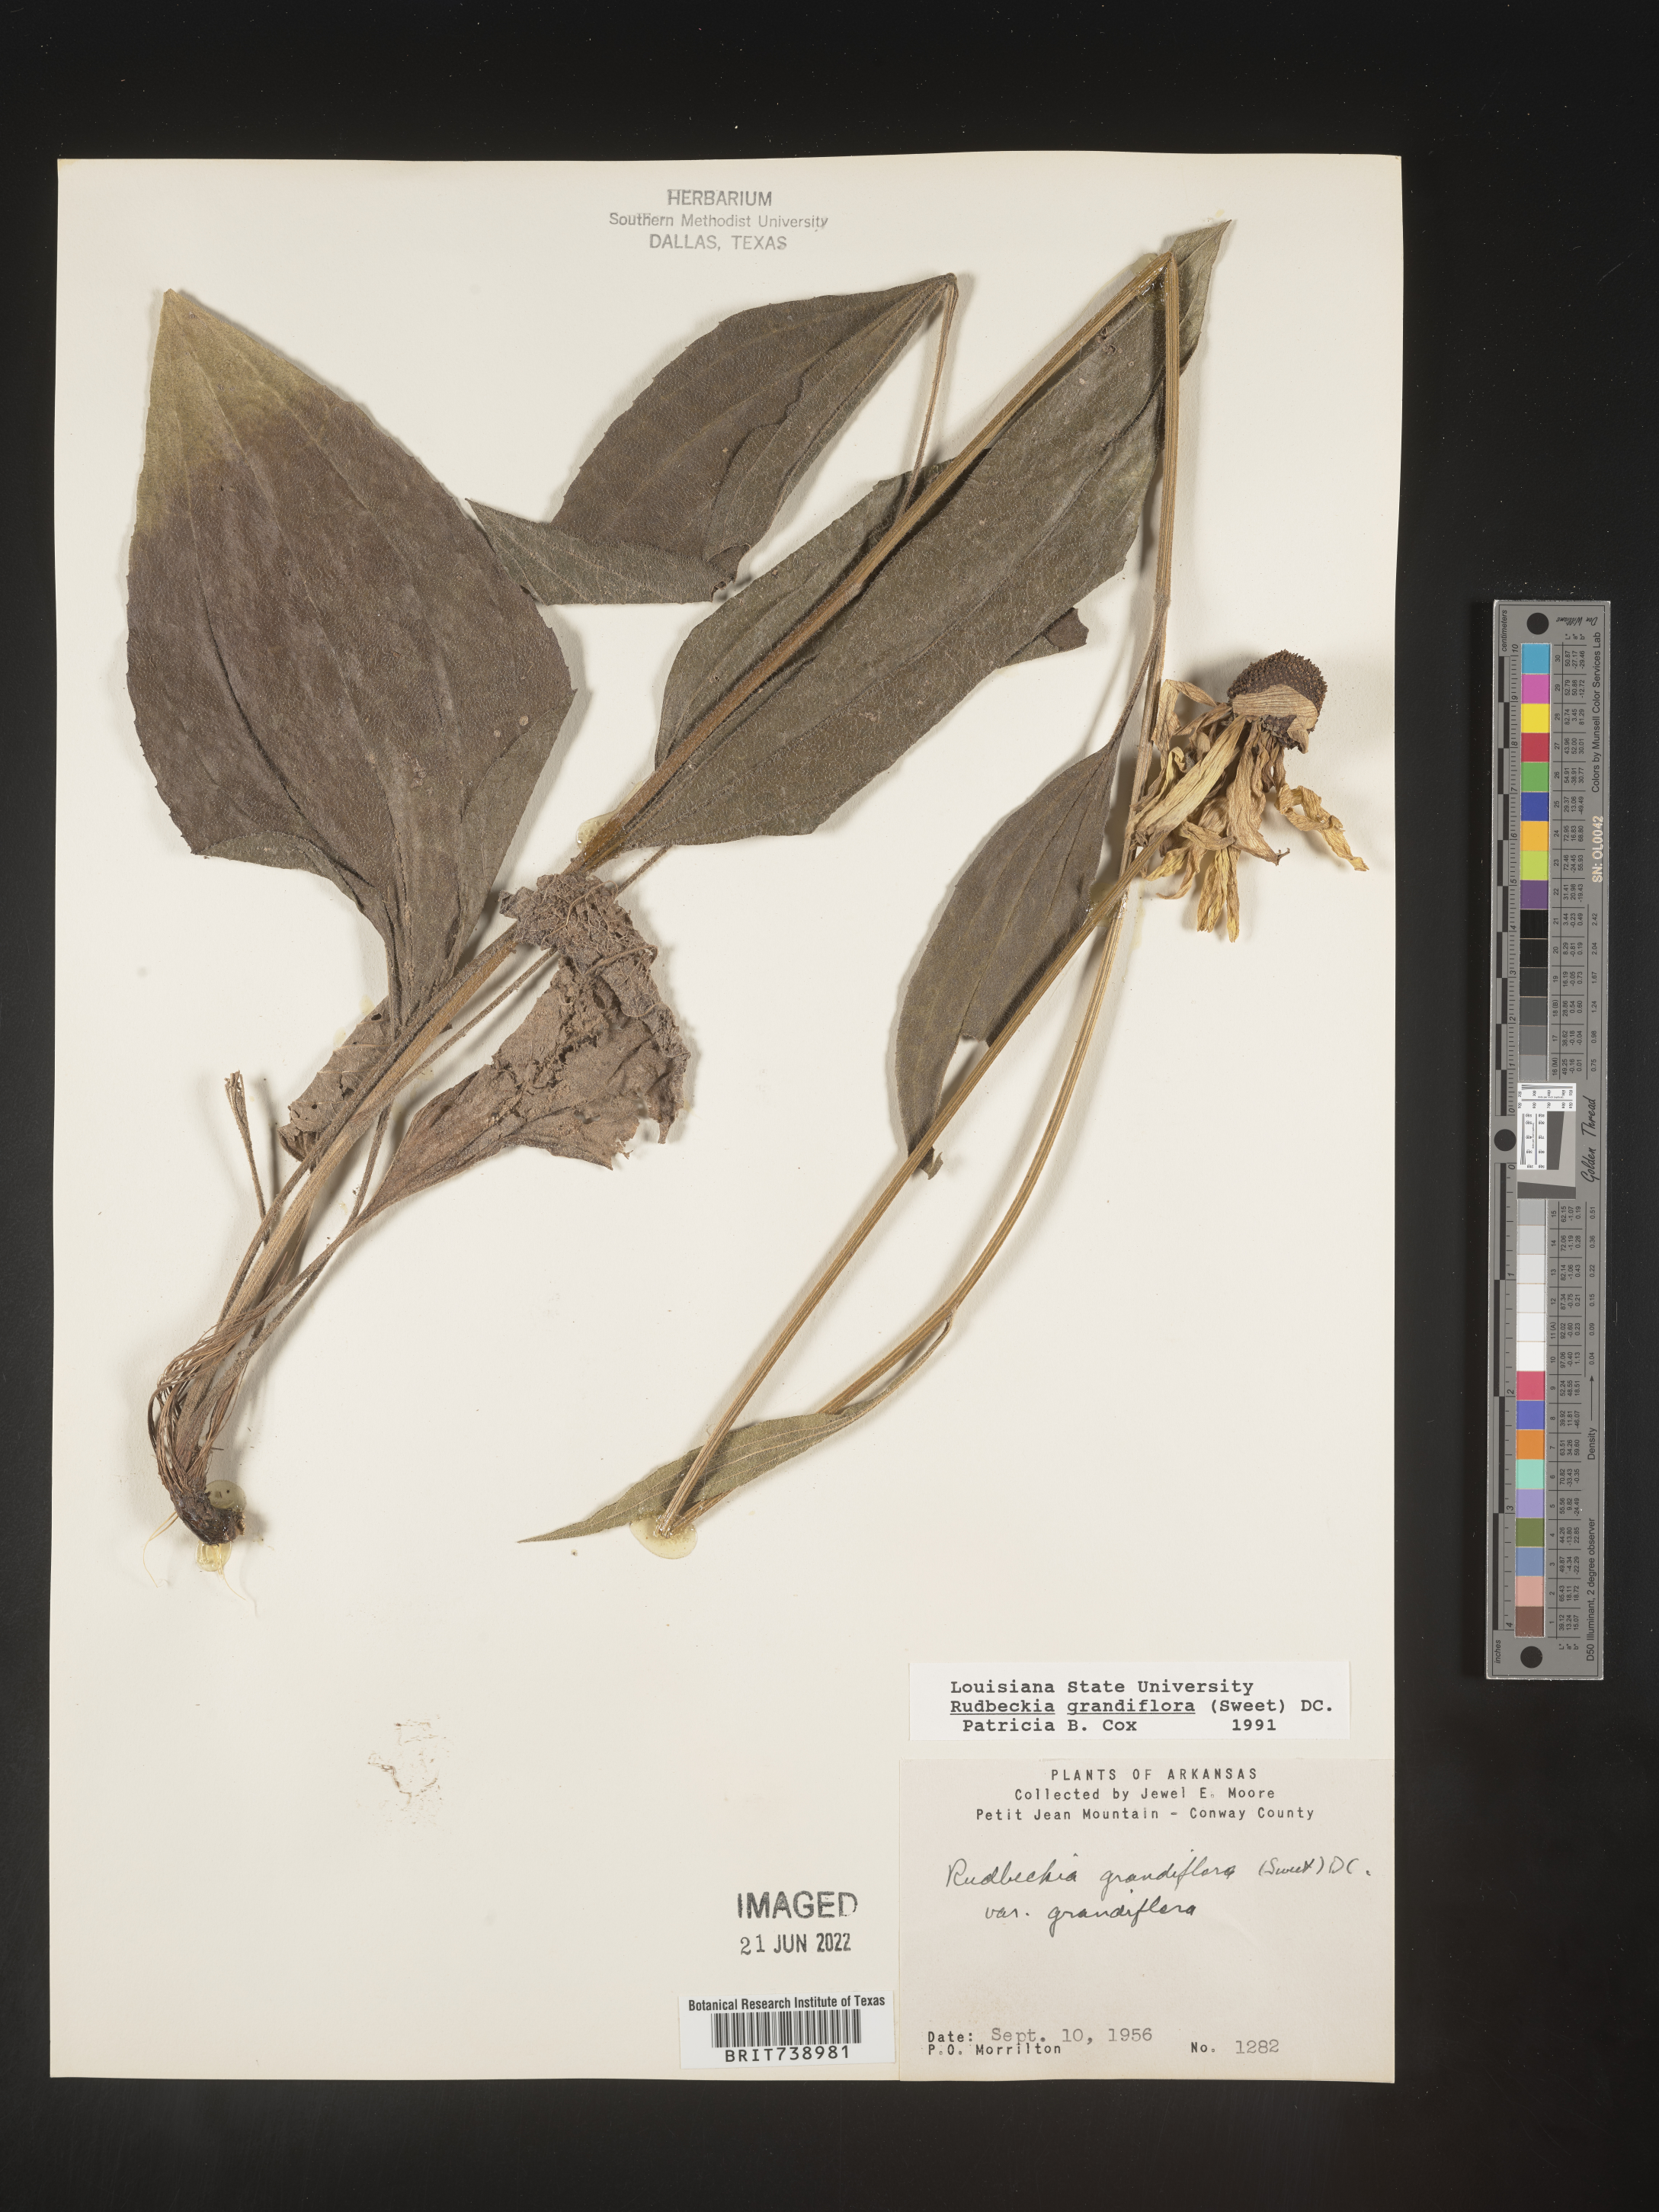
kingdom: Plantae
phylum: Tracheophyta
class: Magnoliopsida
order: Asterales
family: Asteraceae
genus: Rudbeckia
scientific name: Rudbeckia grandiflora
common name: Large-flowered coneflower
